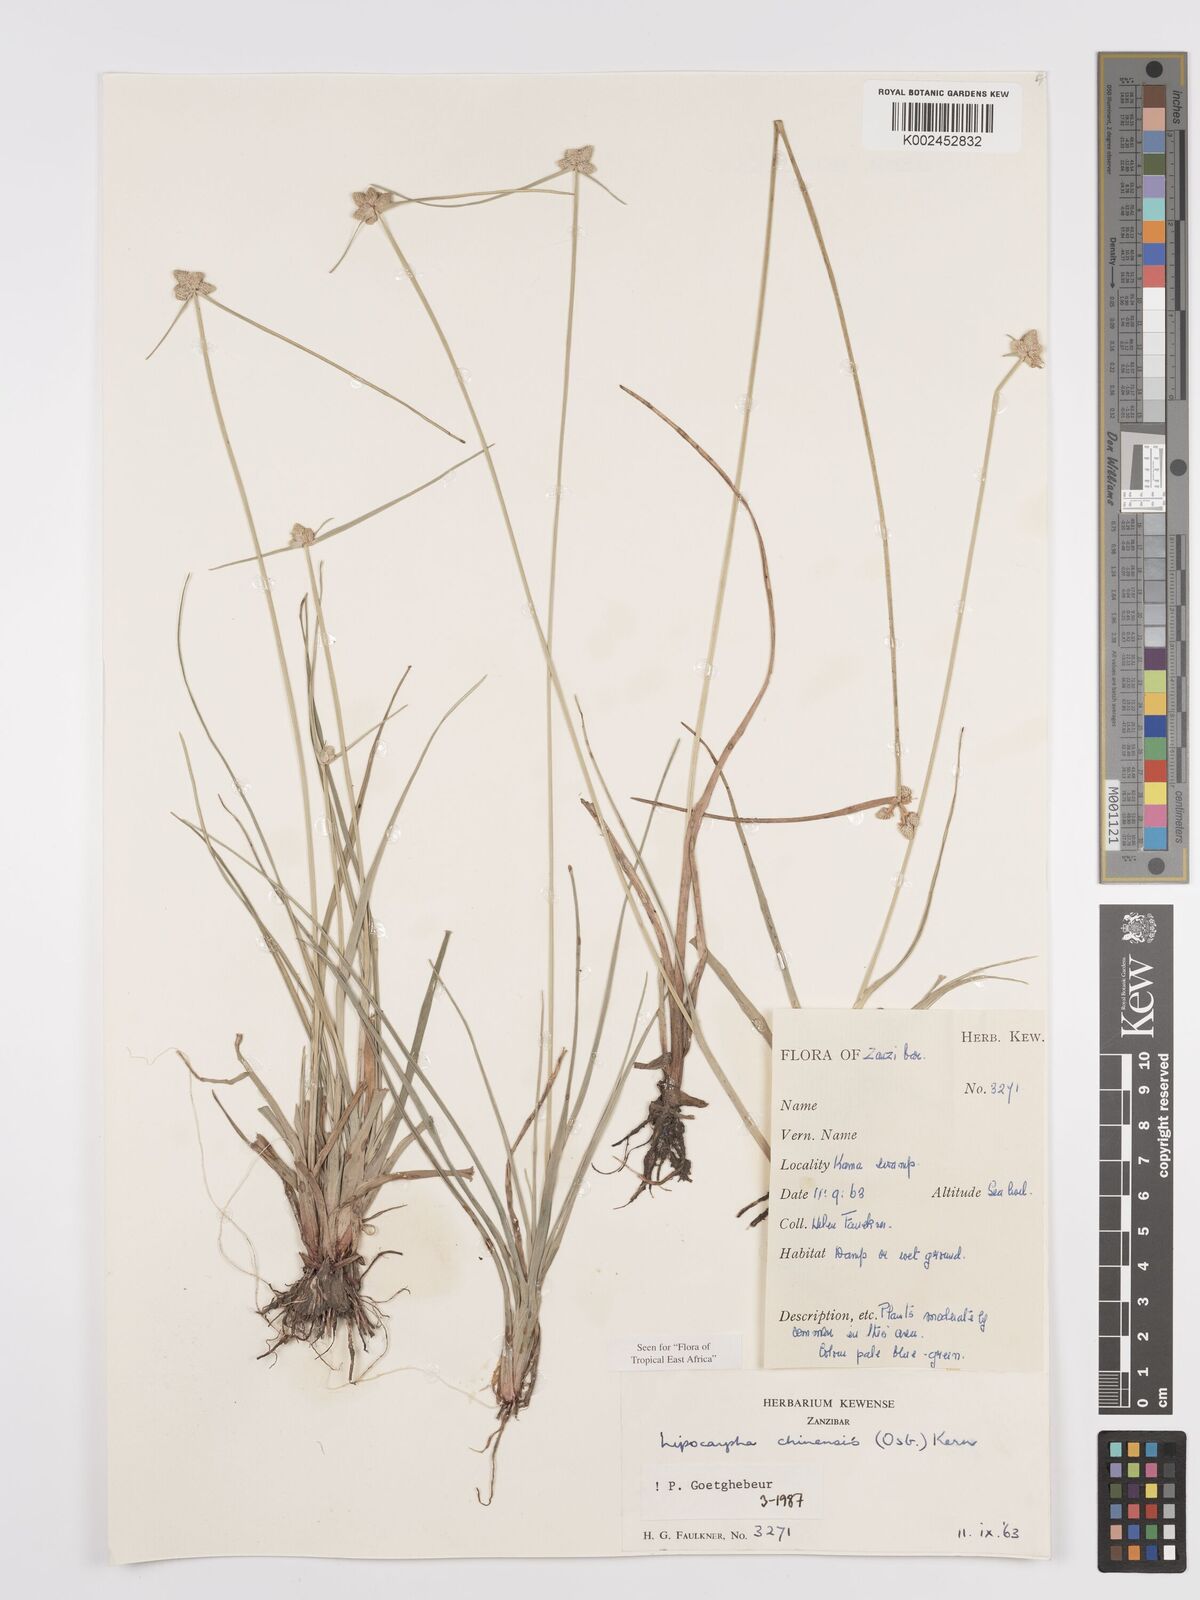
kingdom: Plantae
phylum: Tracheophyta
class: Liliopsida
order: Poales
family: Cyperaceae
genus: Cyperus
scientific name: Cyperus
